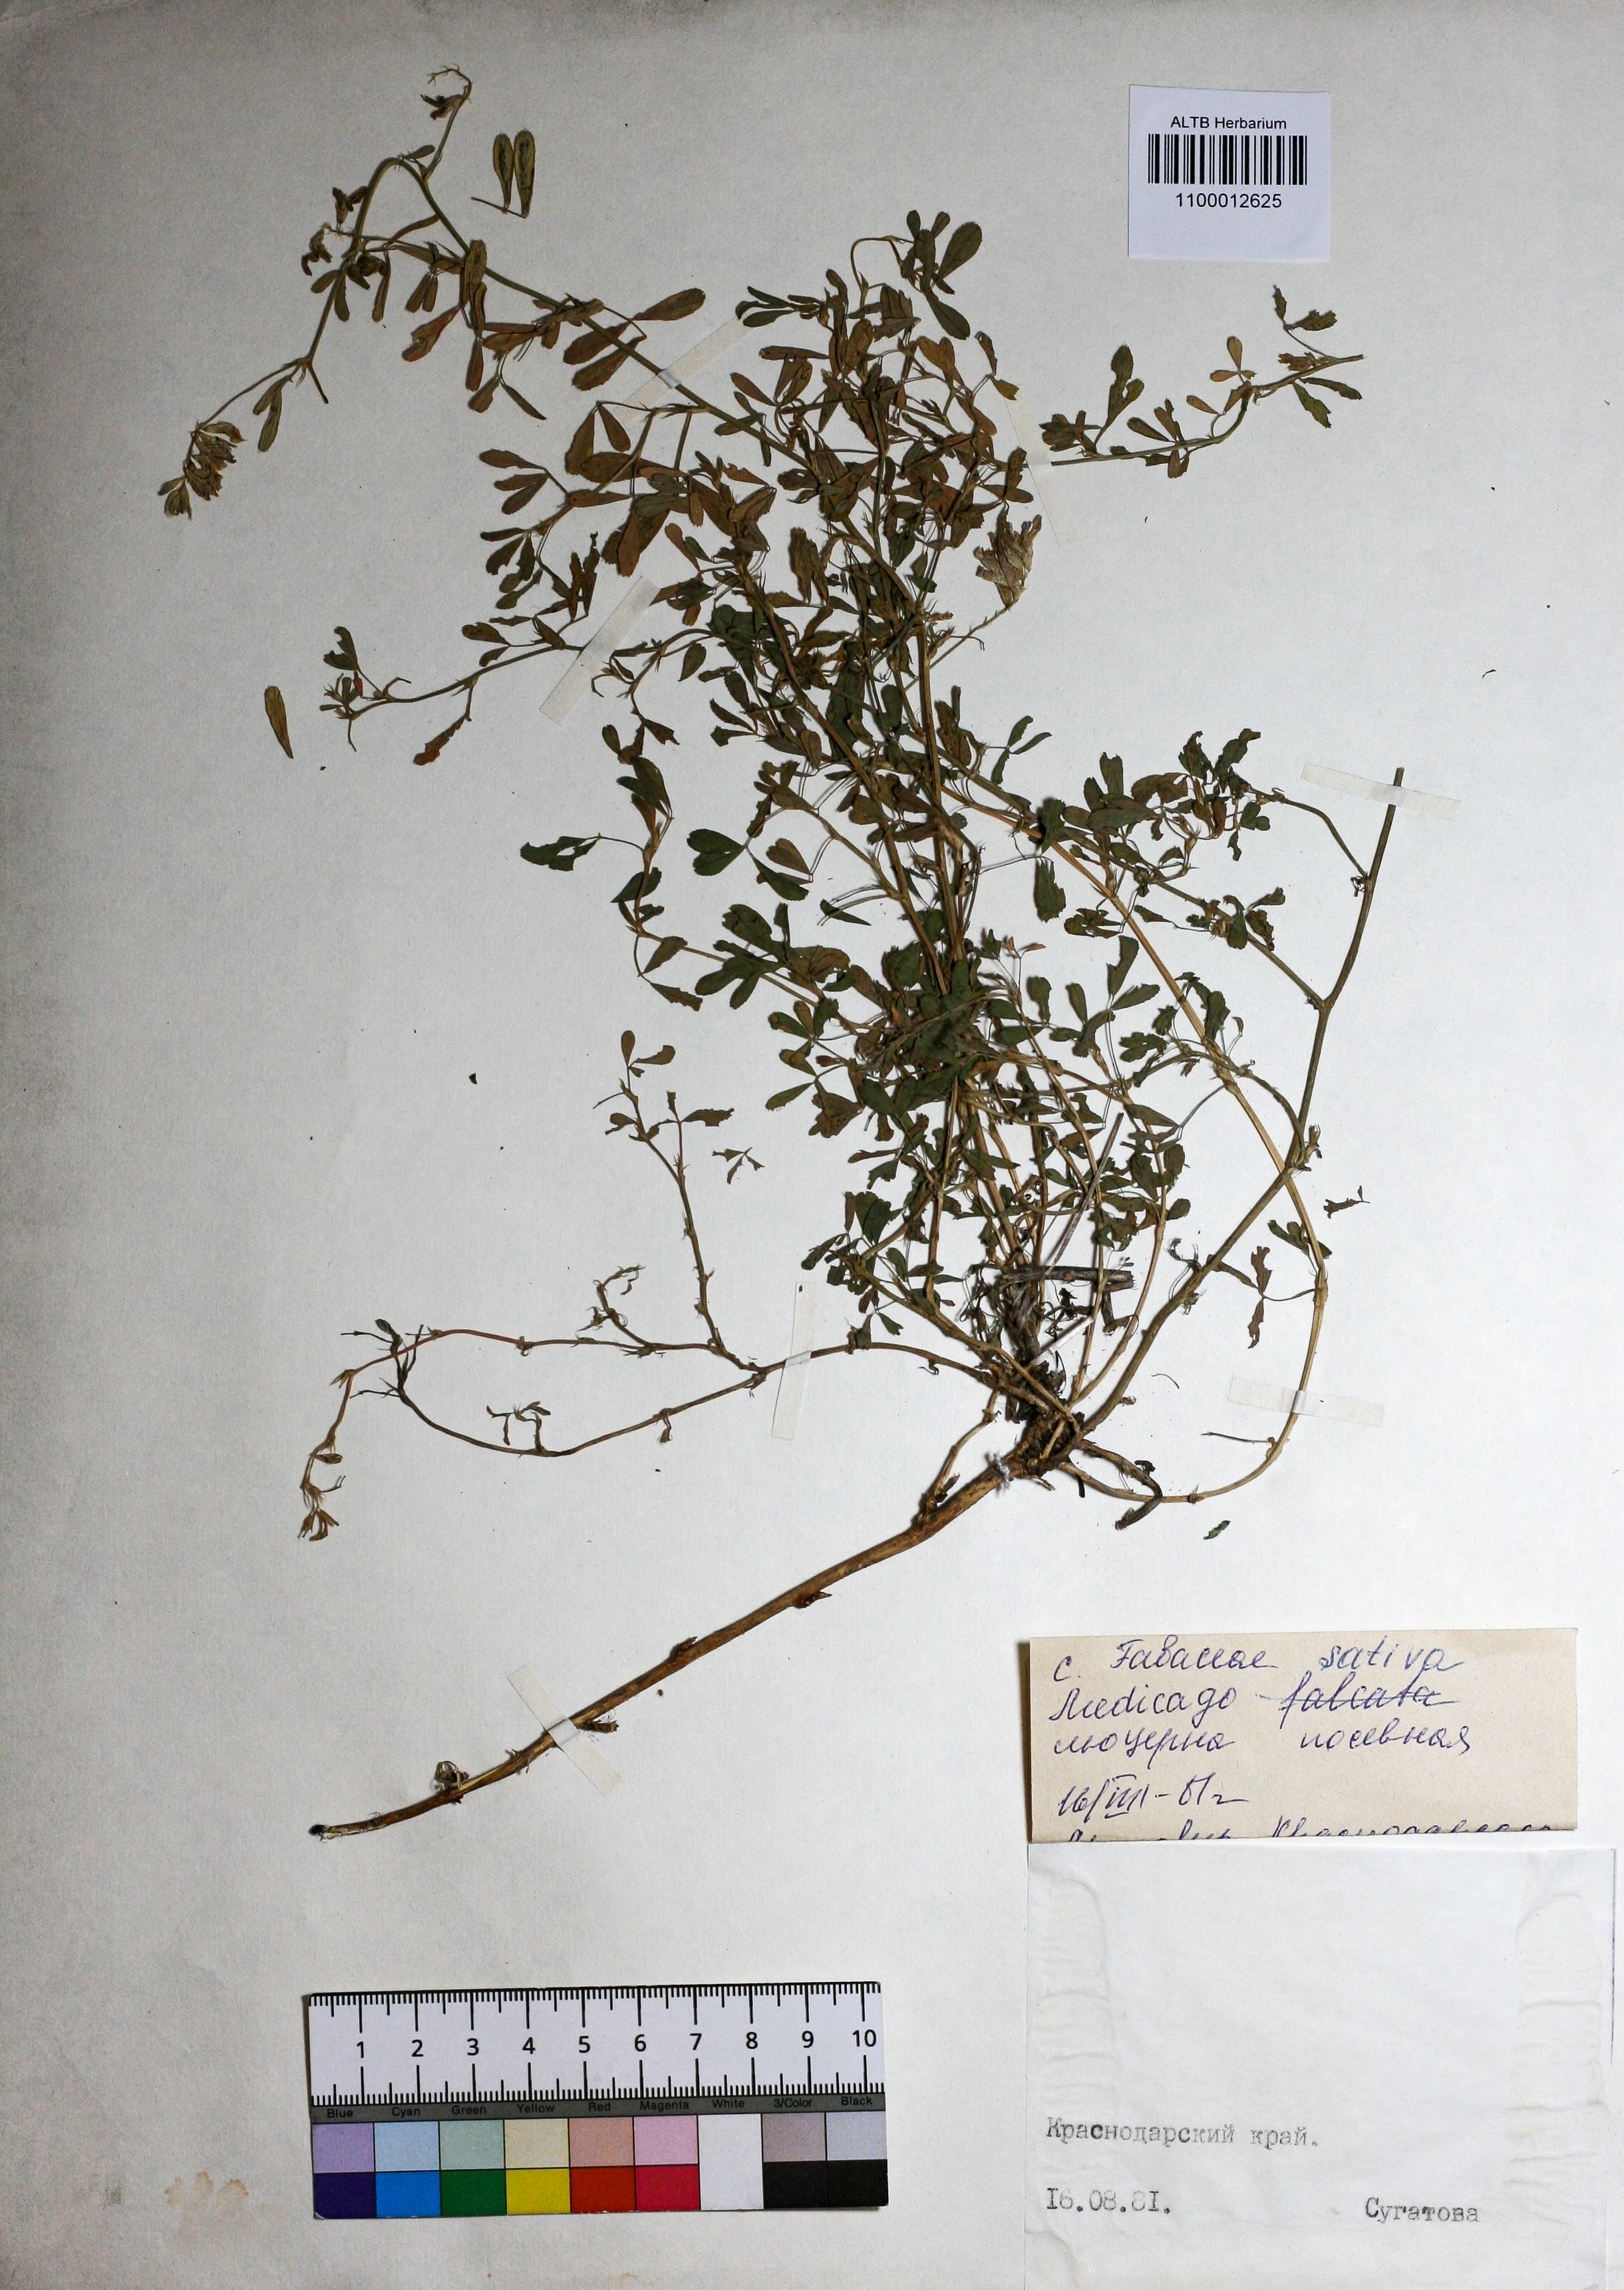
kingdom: Plantae
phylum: Tracheophyta
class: Magnoliopsida
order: Fabales
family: Fabaceae
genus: Medicago
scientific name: Medicago sativa
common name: Alfalfa
